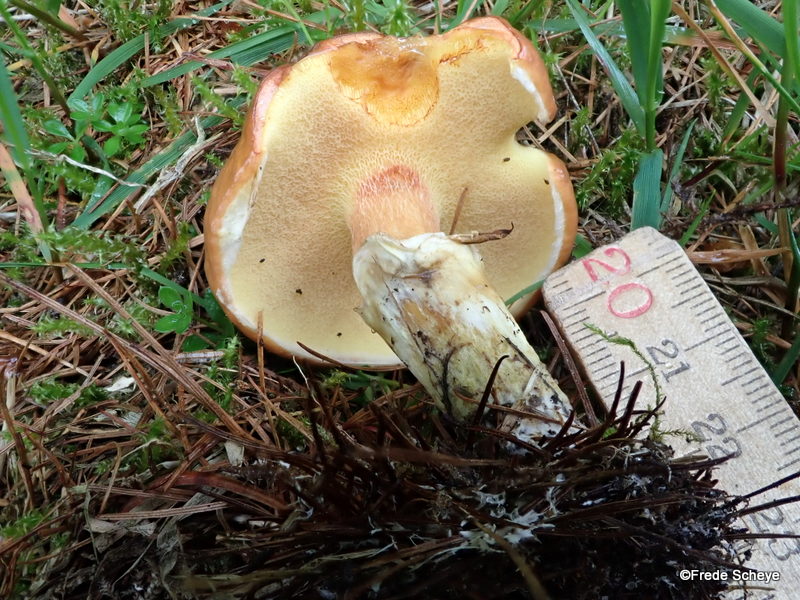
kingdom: Fungi
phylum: Basidiomycota
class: Agaricomycetes
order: Boletales
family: Suillaceae
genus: Suillus
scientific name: Suillus grevillei
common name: lærke-slimrørhat
